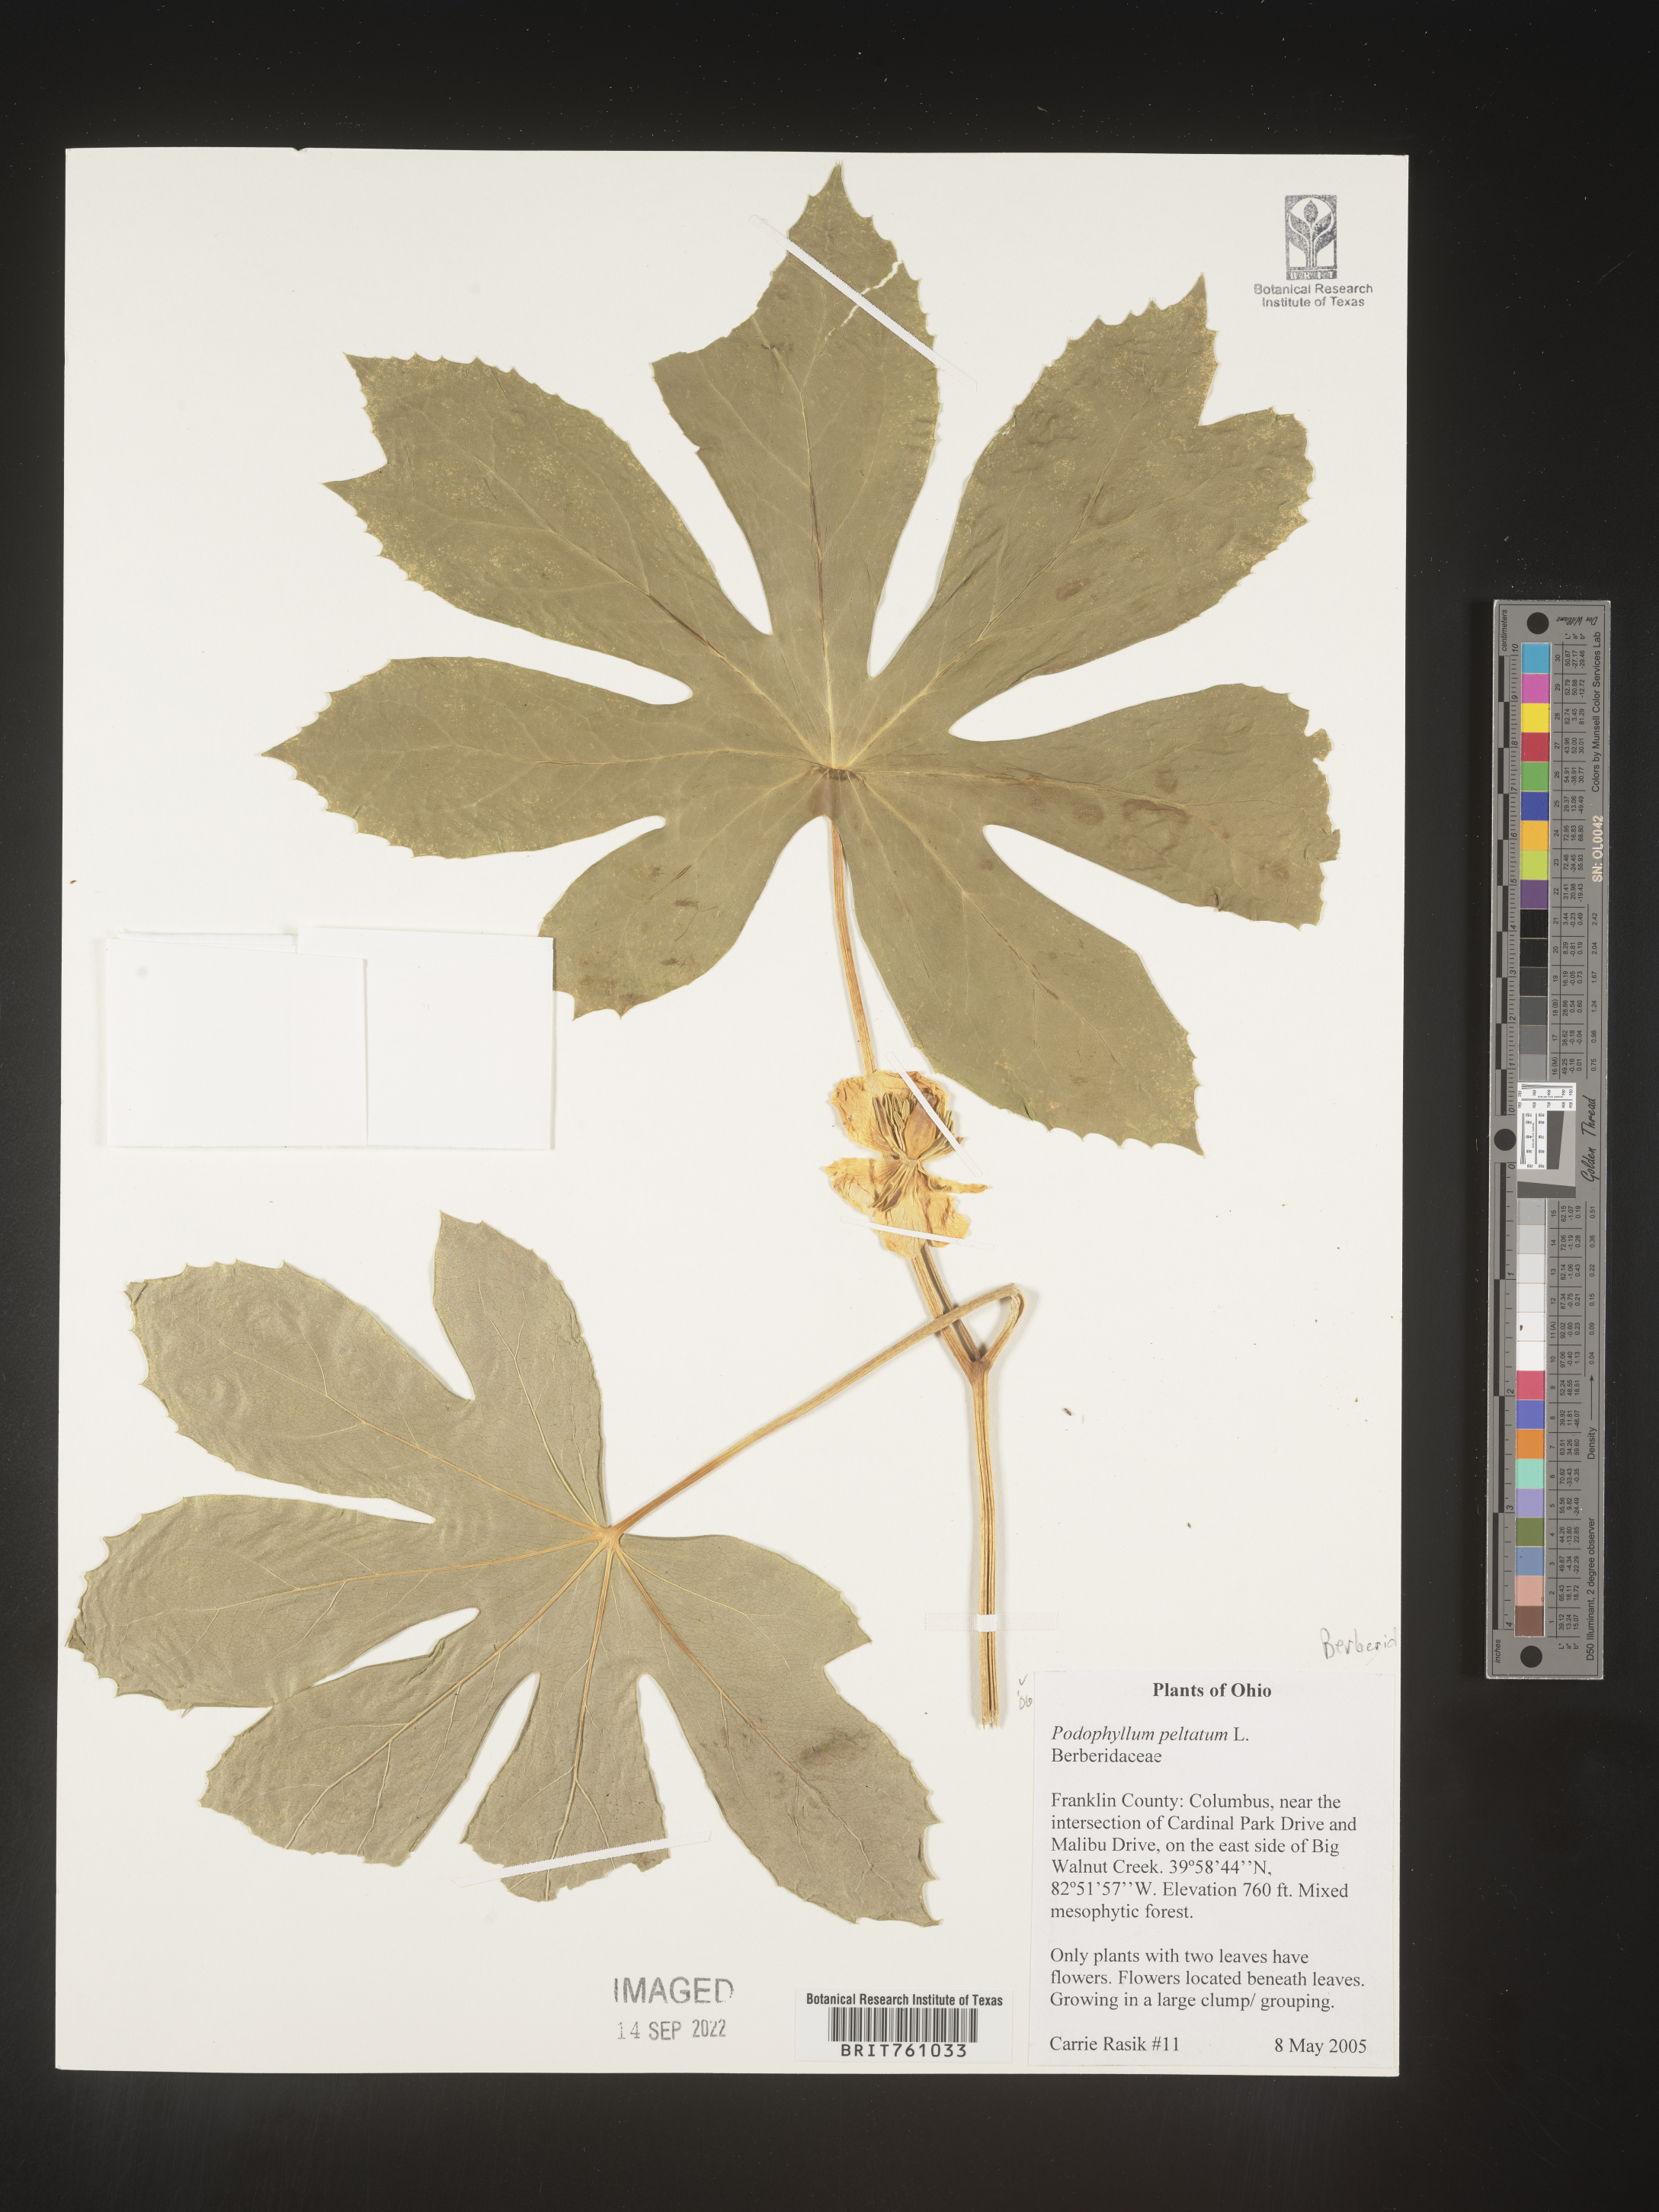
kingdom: Plantae
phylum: Tracheophyta
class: Magnoliopsida
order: Ranunculales
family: Berberidaceae
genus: Podophyllum
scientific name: Podophyllum peltatum
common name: Wild mandrake
